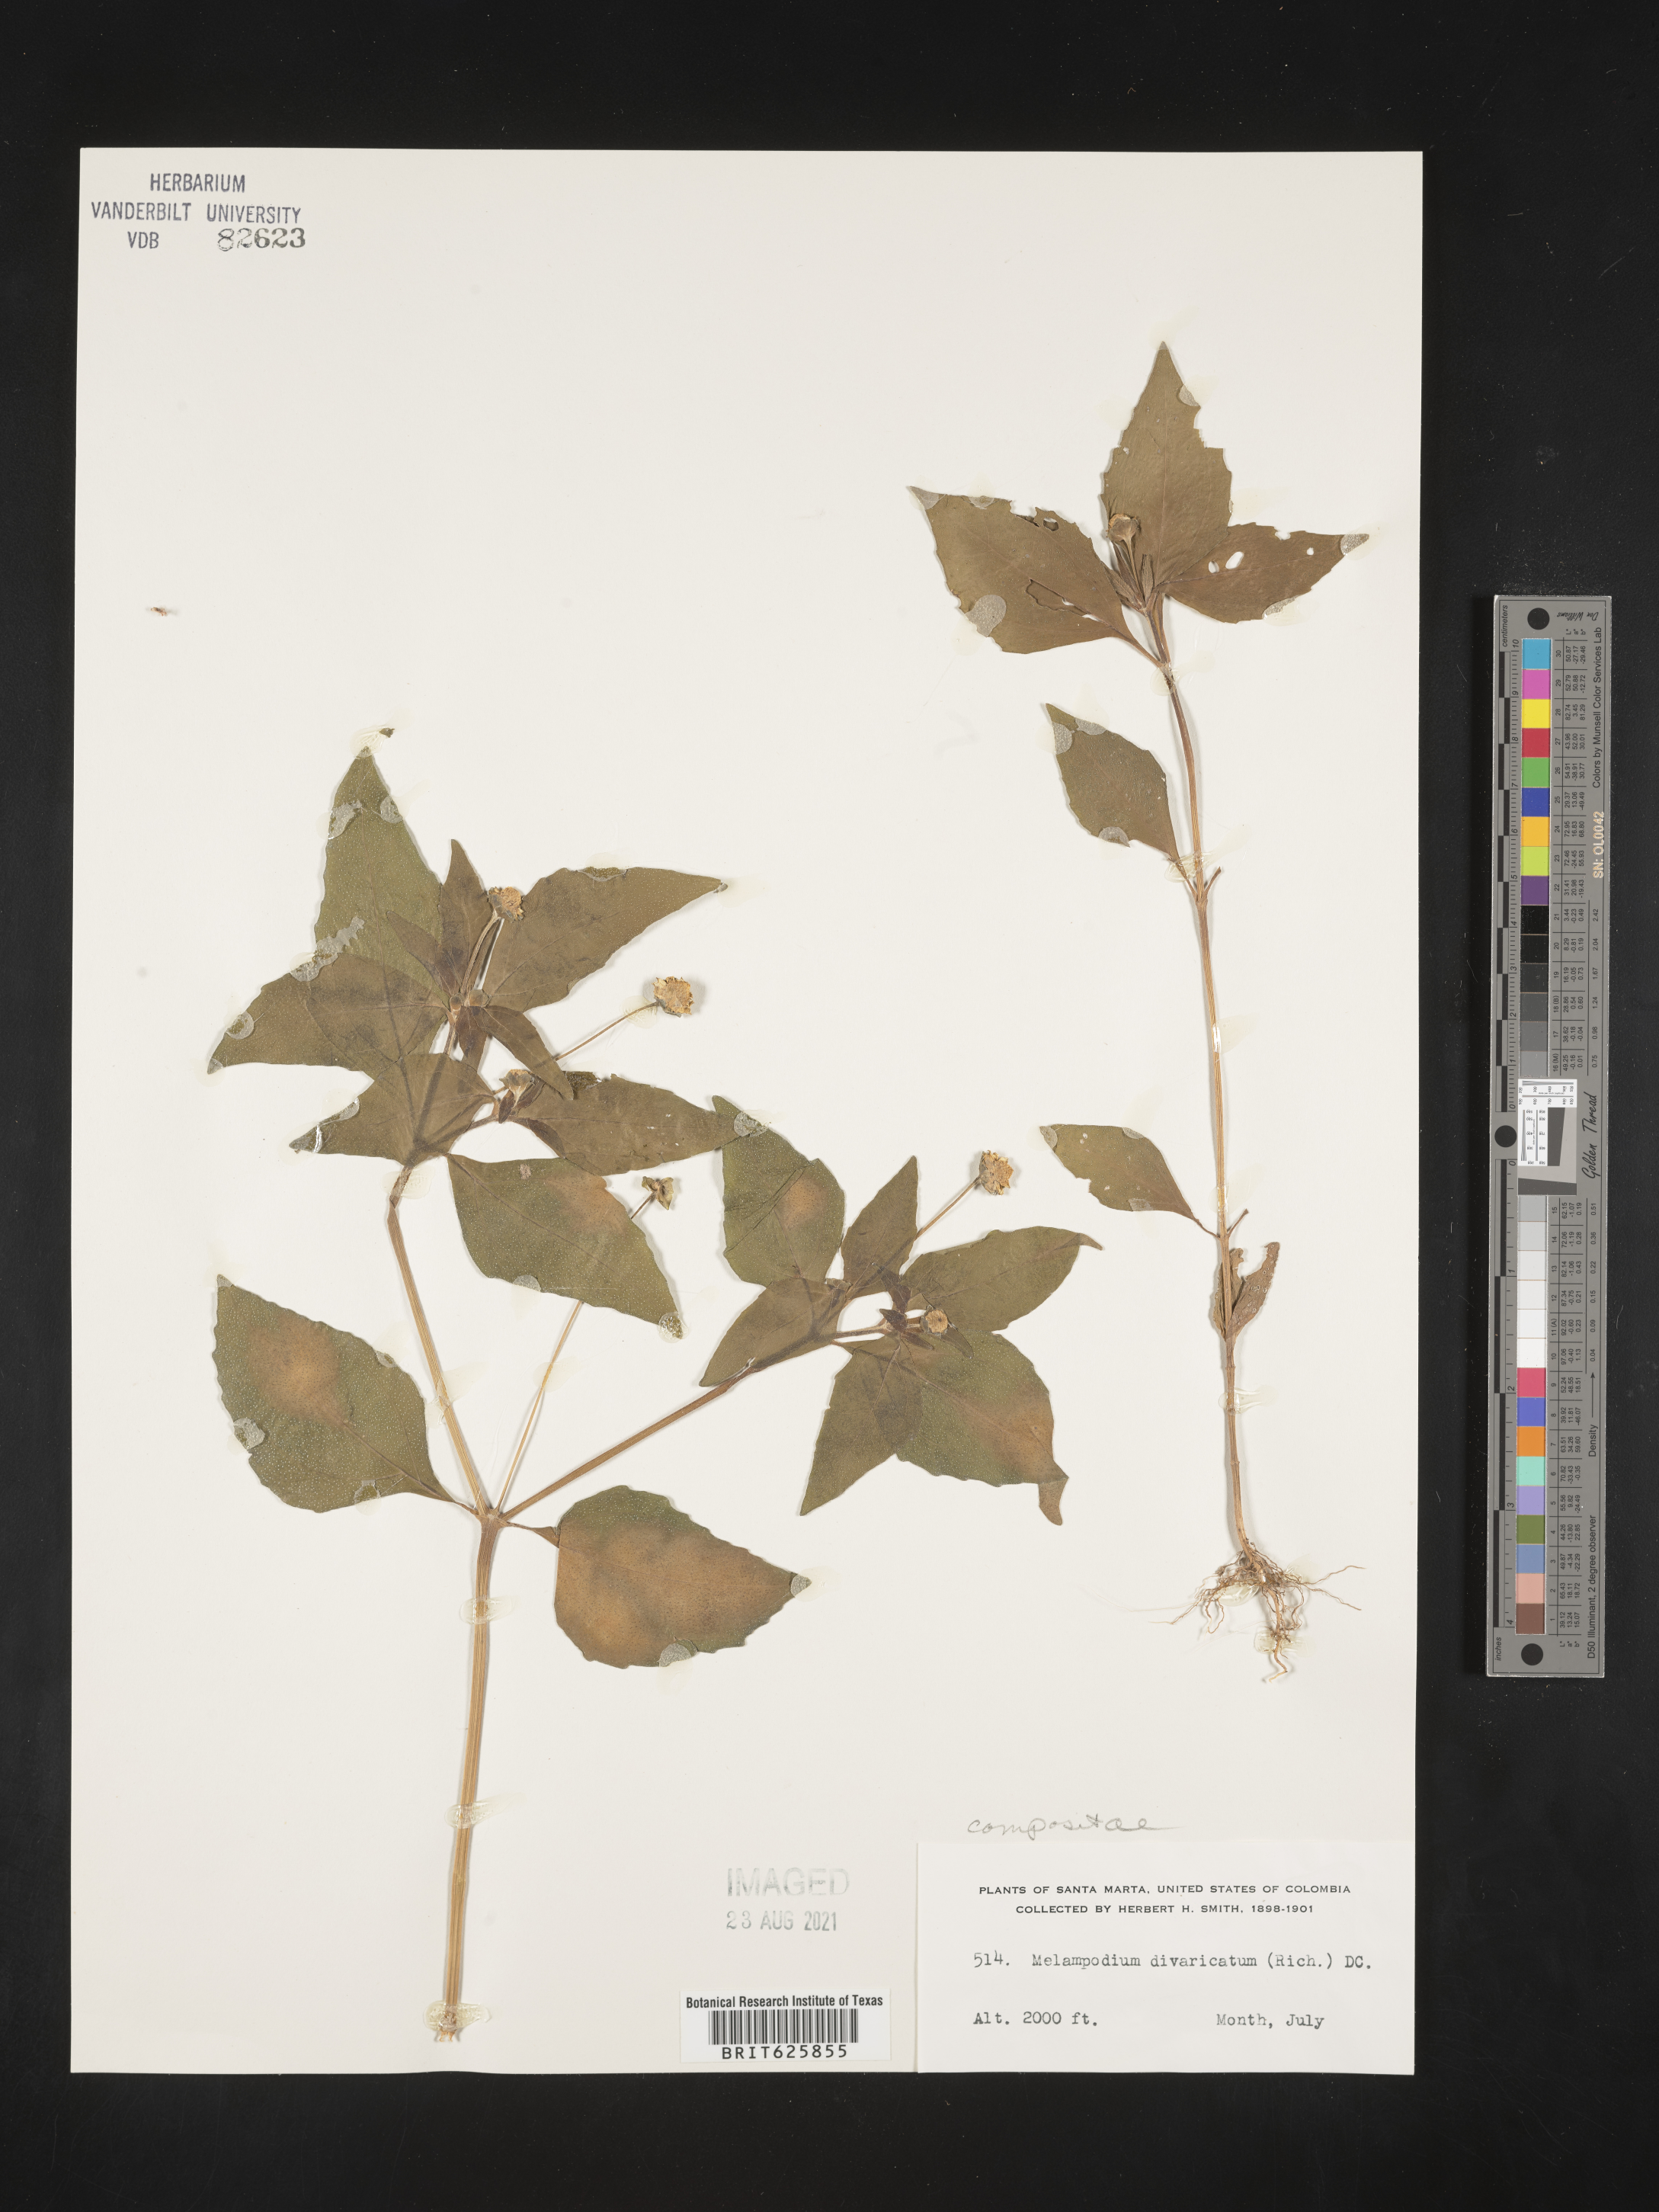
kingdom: Plantae
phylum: Tracheophyta
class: Magnoliopsida
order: Asterales
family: Asteraceae
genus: Melampodium
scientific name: Melampodium divaricatum
